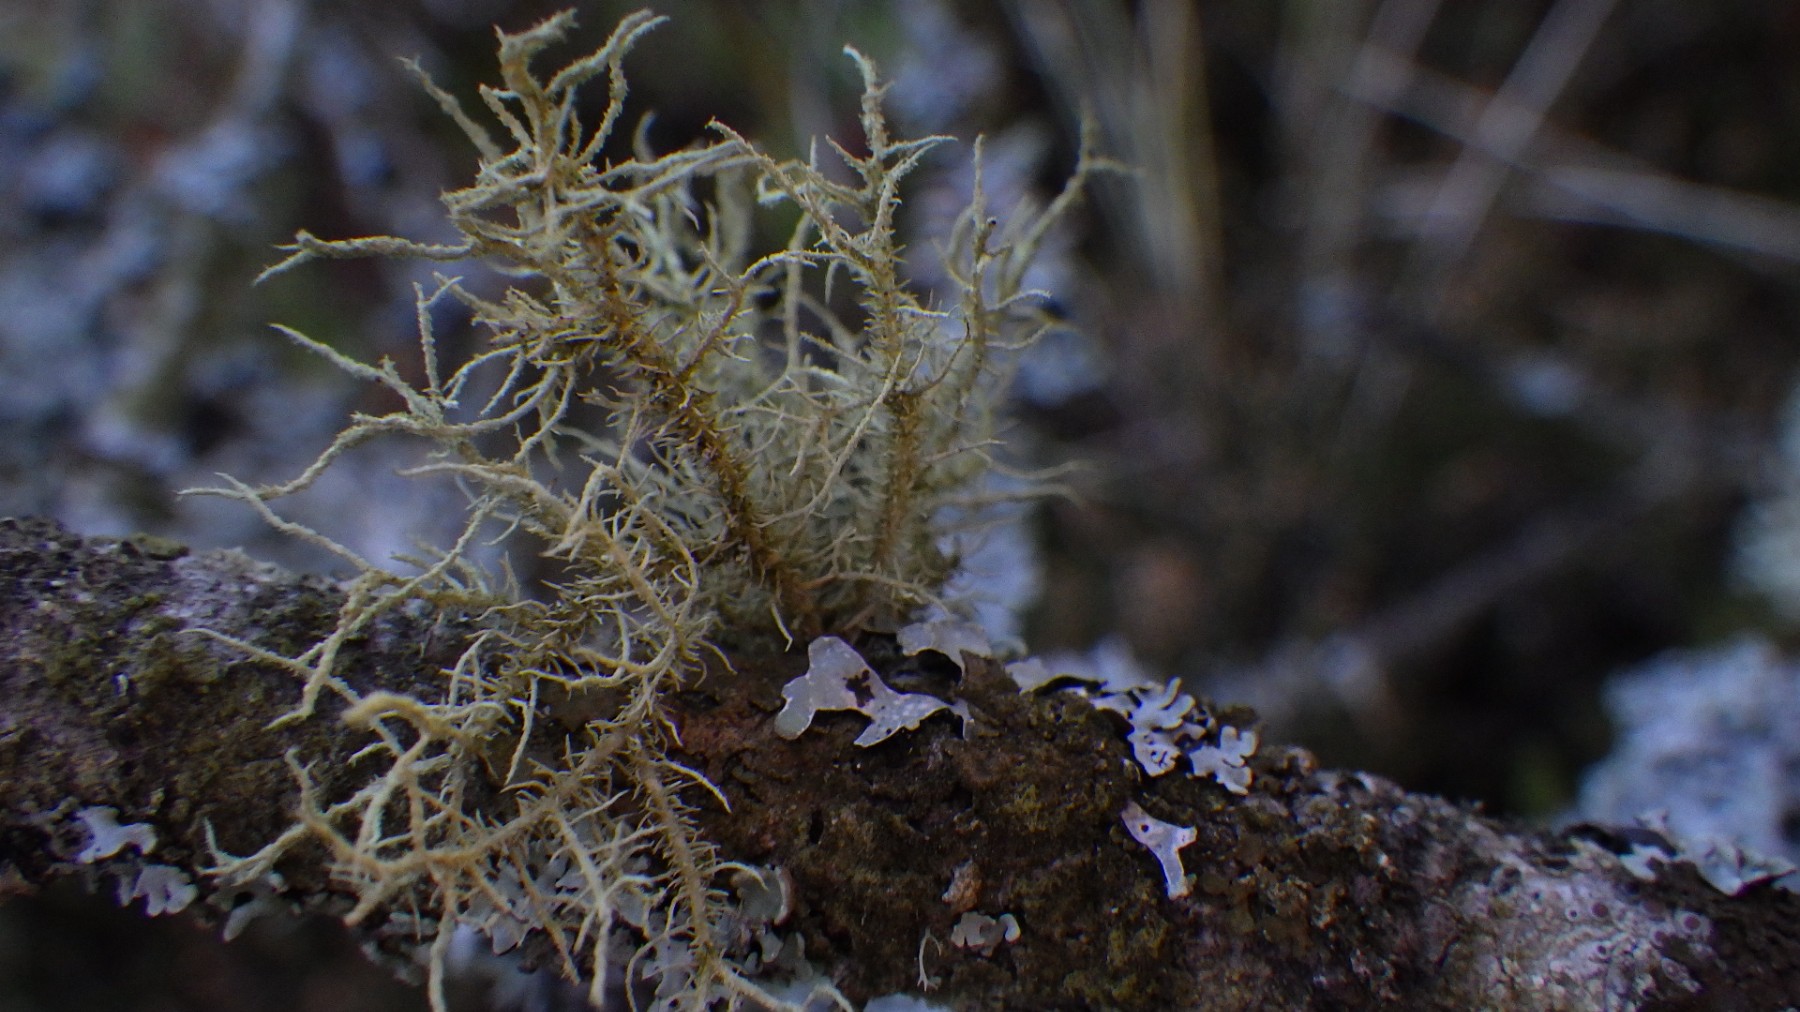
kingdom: Fungi
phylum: Ascomycota
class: Lecanoromycetes
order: Lecanorales
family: Parmeliaceae
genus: Usnea
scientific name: Usnea hirta
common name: liden skæglav
